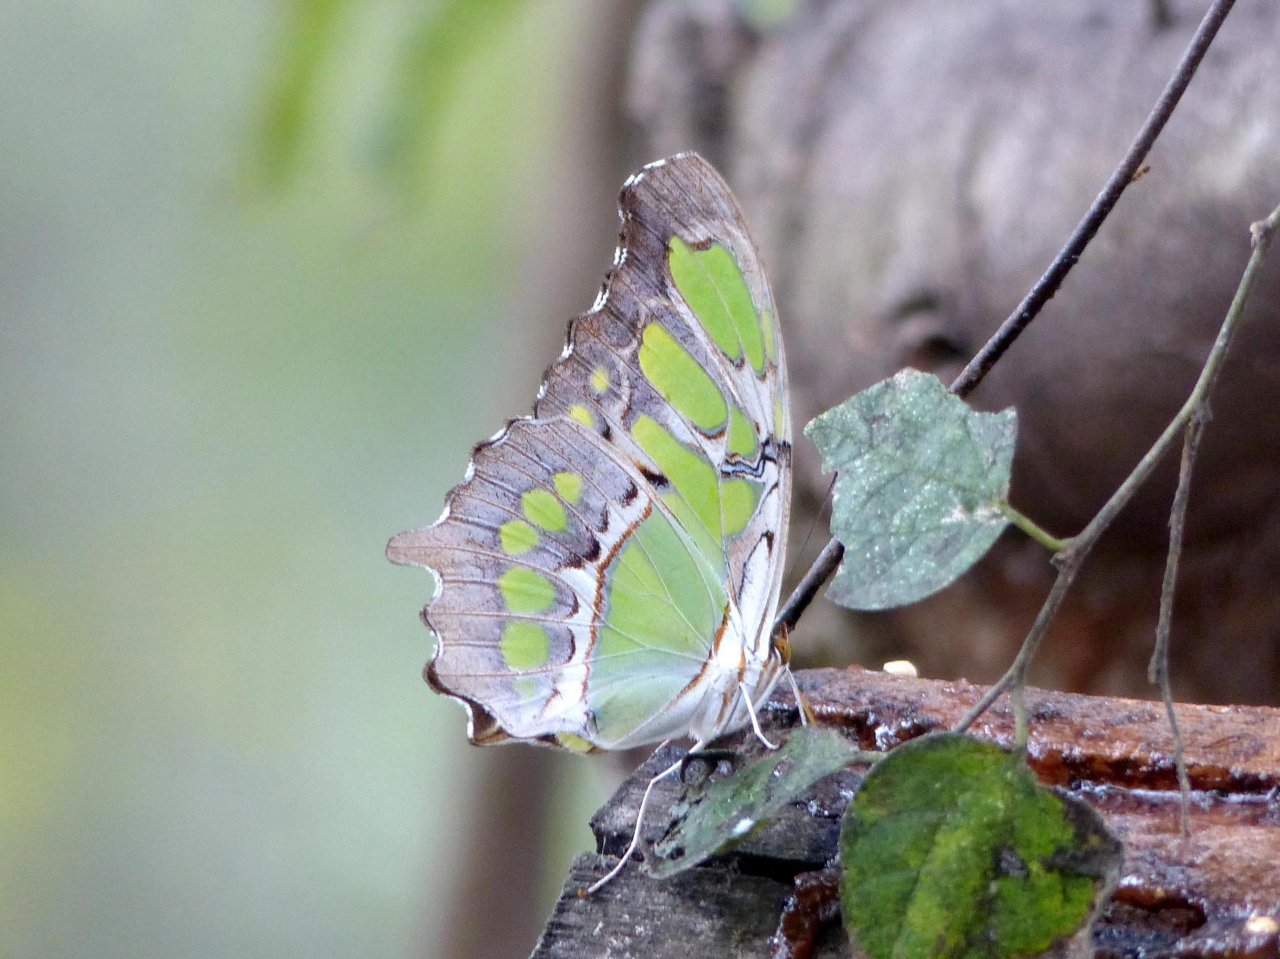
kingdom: Animalia
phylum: Arthropoda
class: Insecta
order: Lepidoptera
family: Nymphalidae
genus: Siproeta
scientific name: Siproeta stelenes
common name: Malachite
